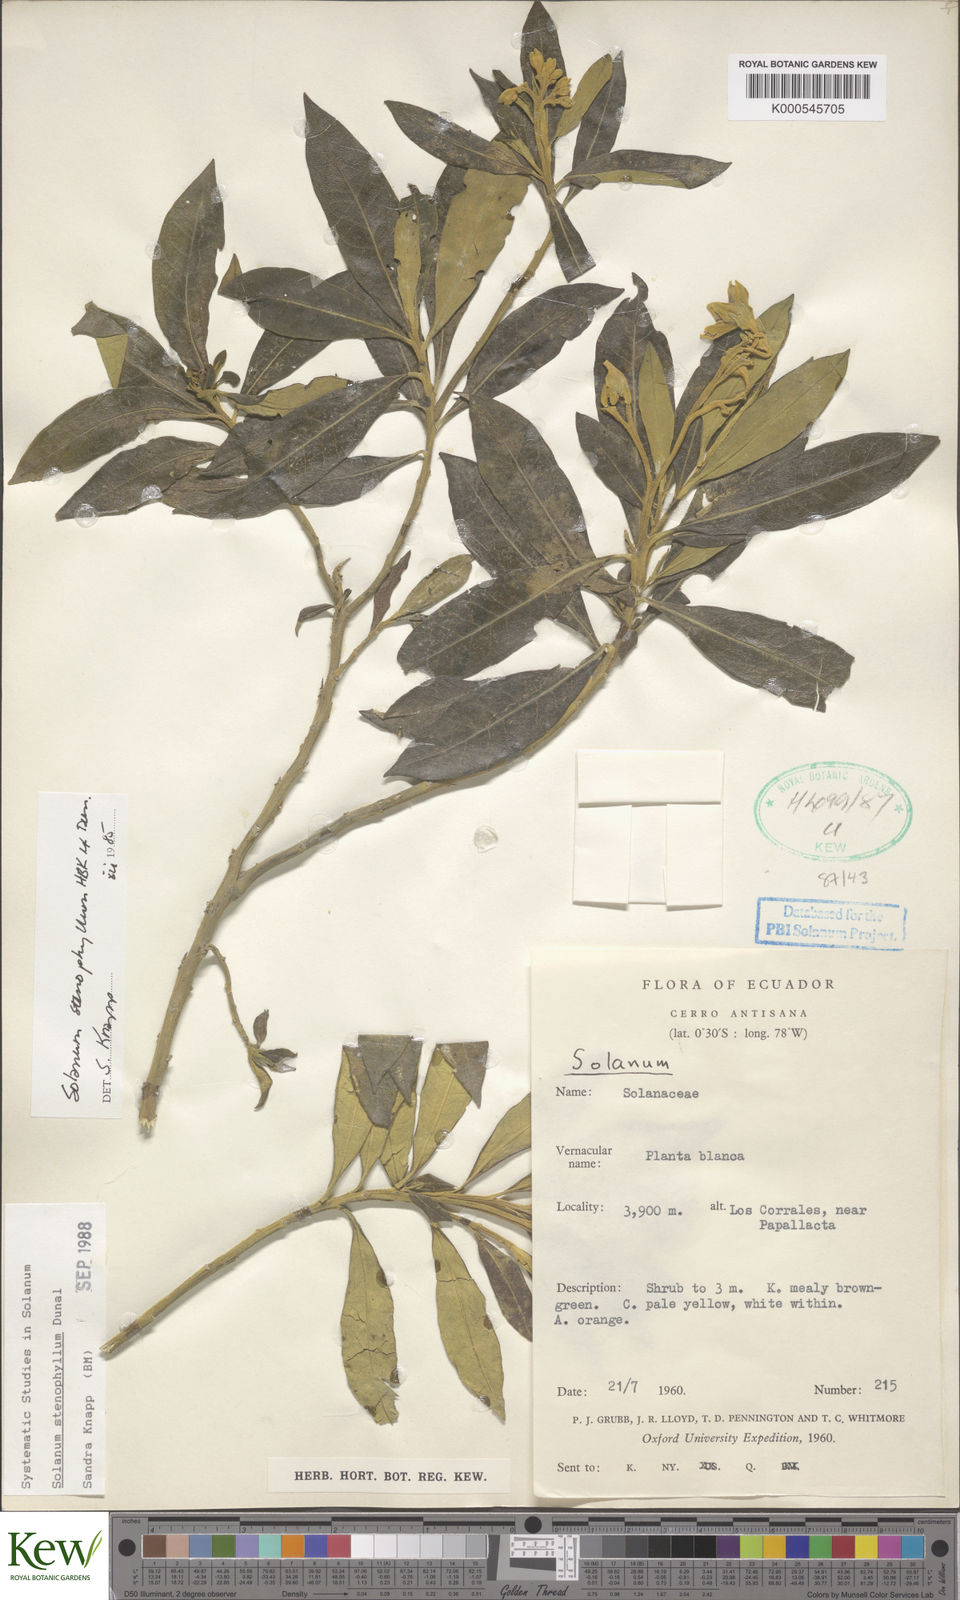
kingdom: Plantae
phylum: Tracheophyta
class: Magnoliopsida
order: Solanales
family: Solanaceae
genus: Solanum
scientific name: Solanum stenophyllum
